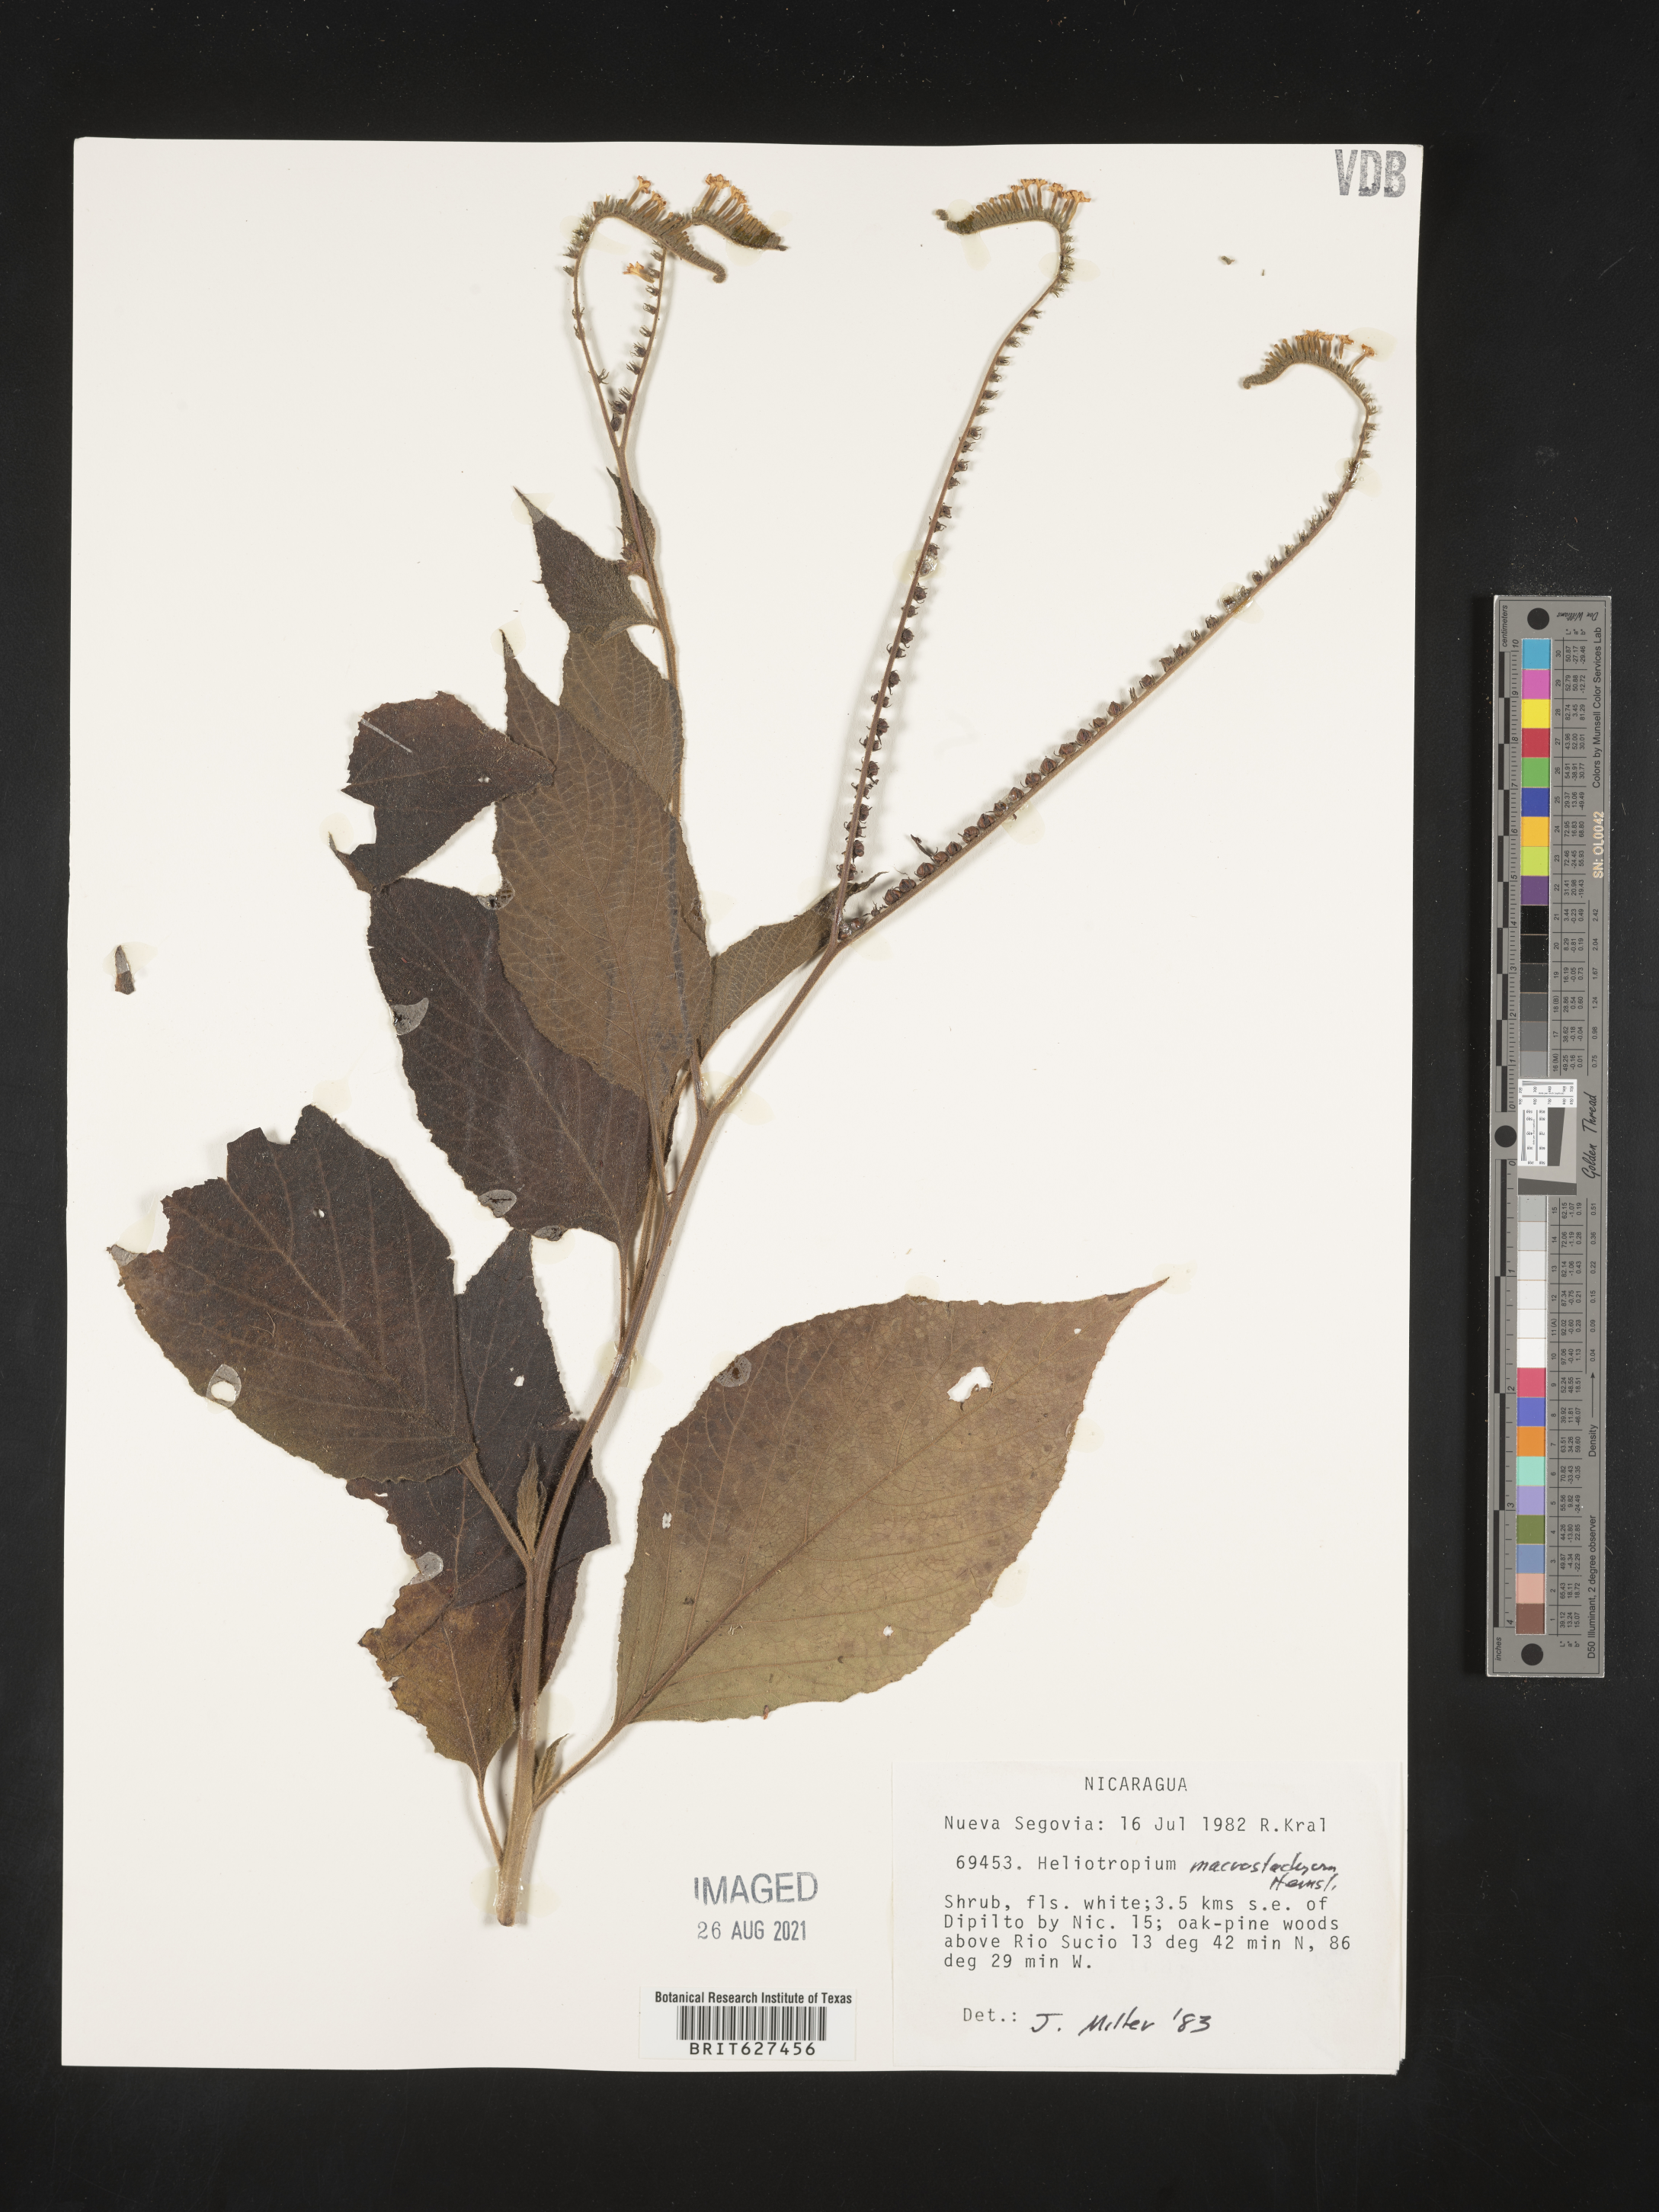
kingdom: Plantae
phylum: Tracheophyta
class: Magnoliopsida
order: Boraginales
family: Heliotropiaceae
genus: Heliotropium
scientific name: Heliotropium macrostachyum
